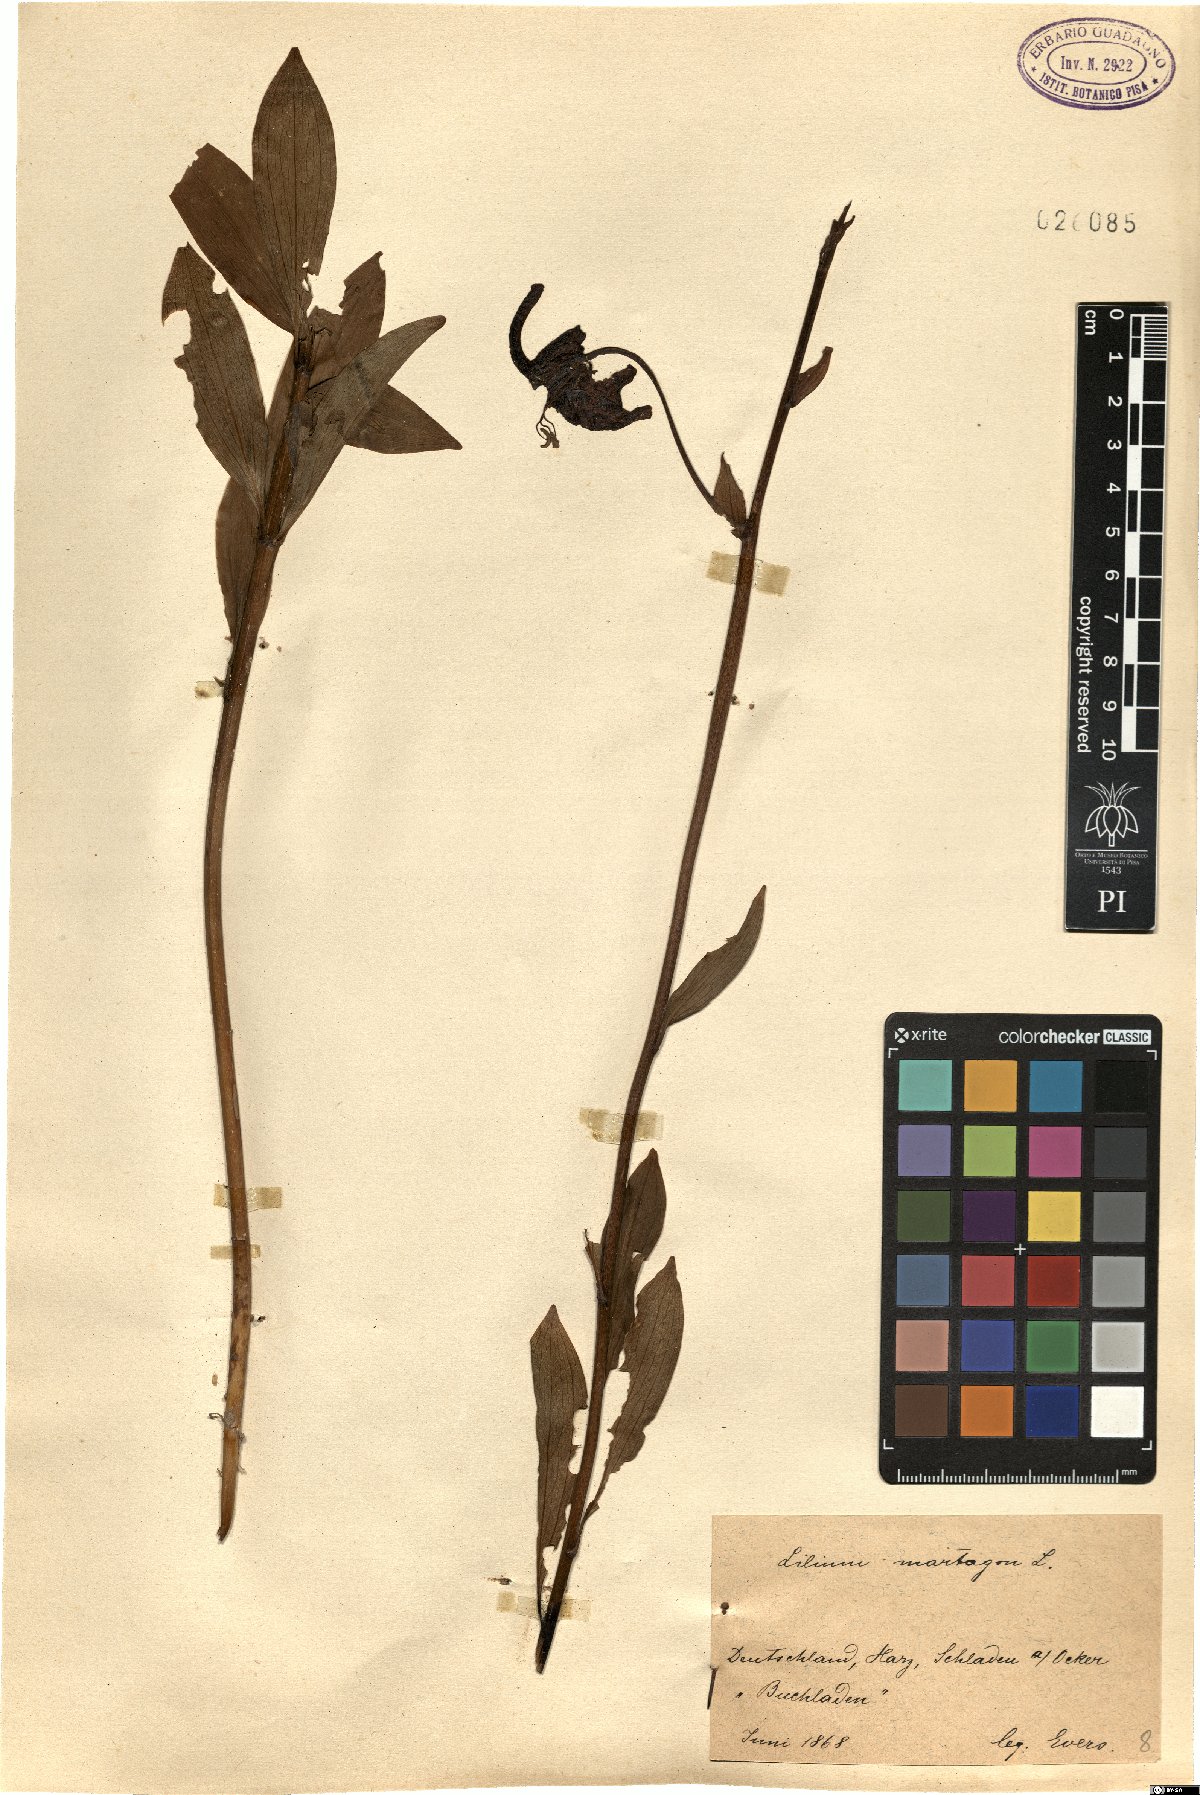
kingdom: Plantae
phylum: Tracheophyta
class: Liliopsida
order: Liliales
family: Liliaceae
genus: Lilium
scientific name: Lilium martagon
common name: Martagon lily
